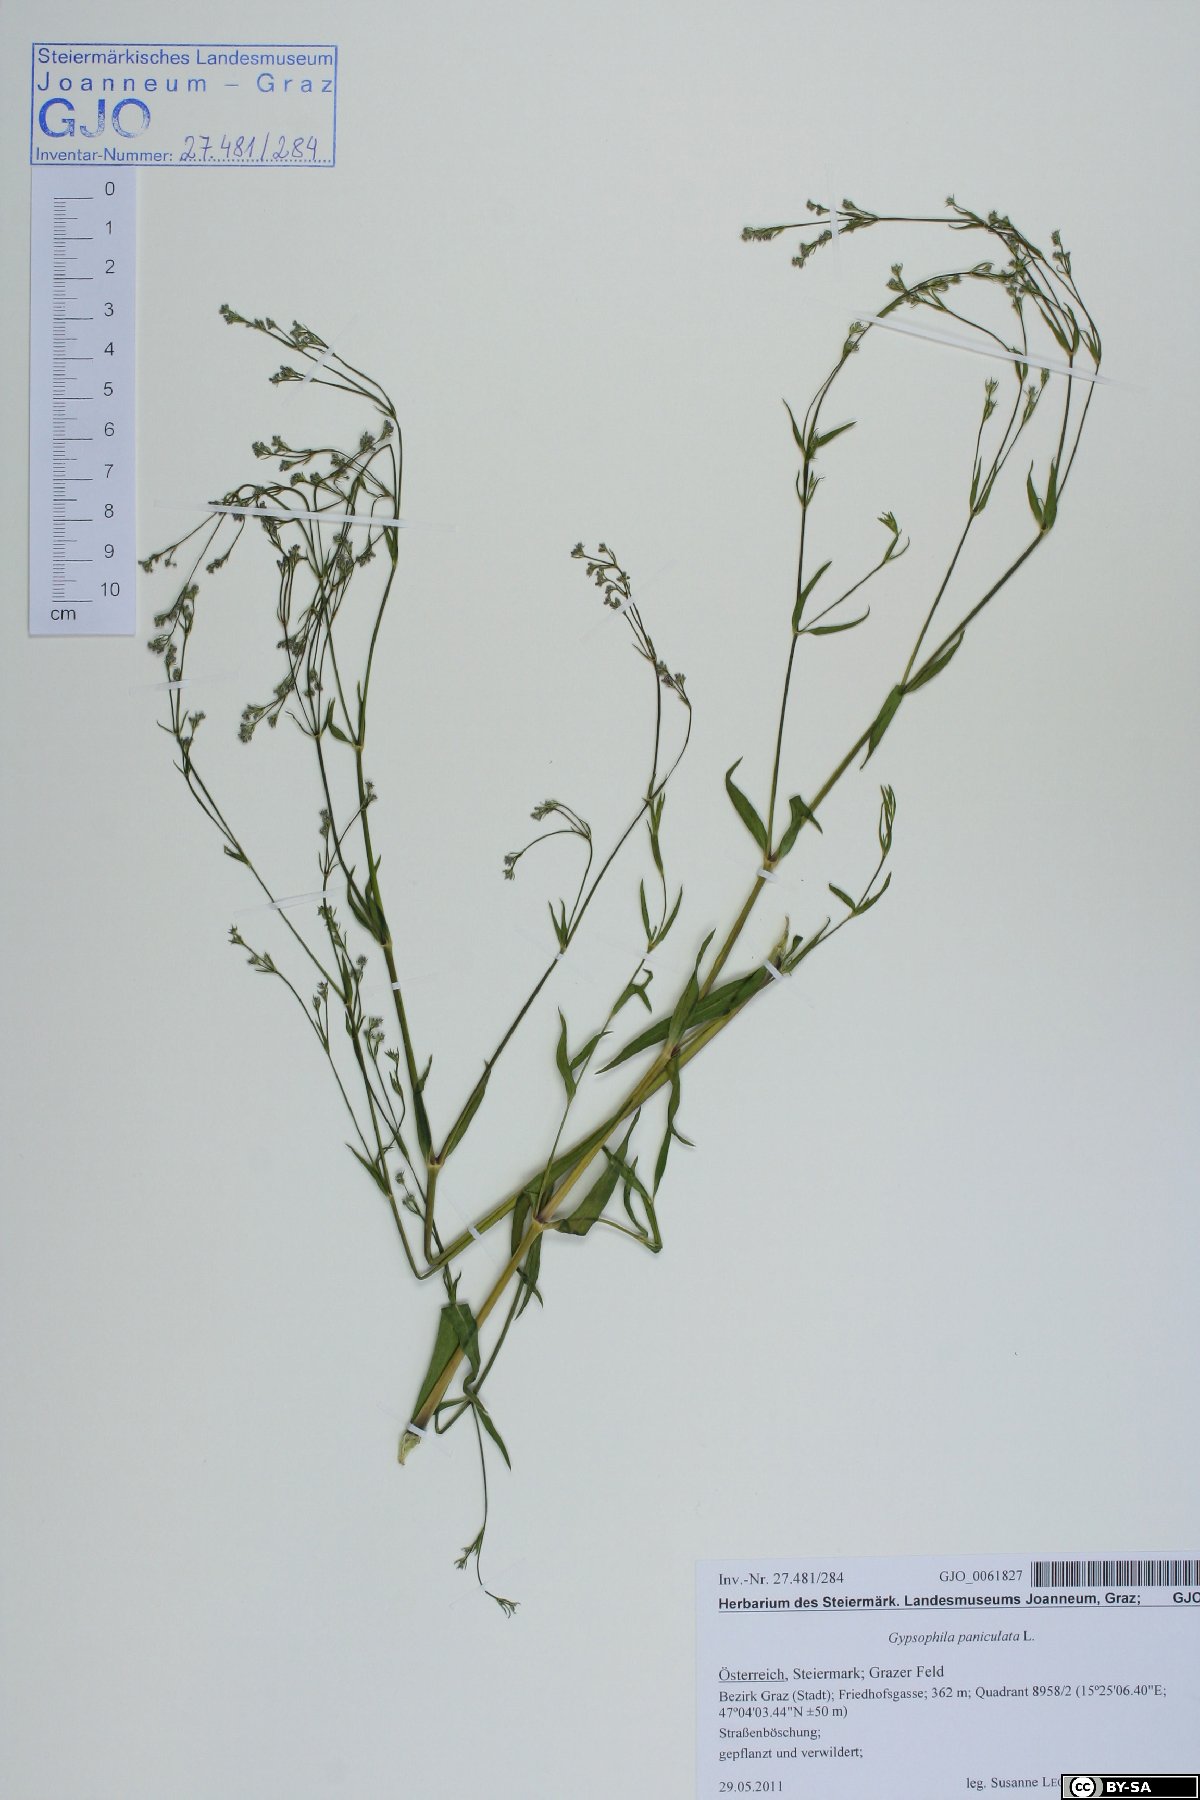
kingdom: Plantae
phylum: Tracheophyta
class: Magnoliopsida
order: Caryophyllales
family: Caryophyllaceae
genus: Gypsophila
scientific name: Gypsophila elegans
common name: Showy baby's-breath
